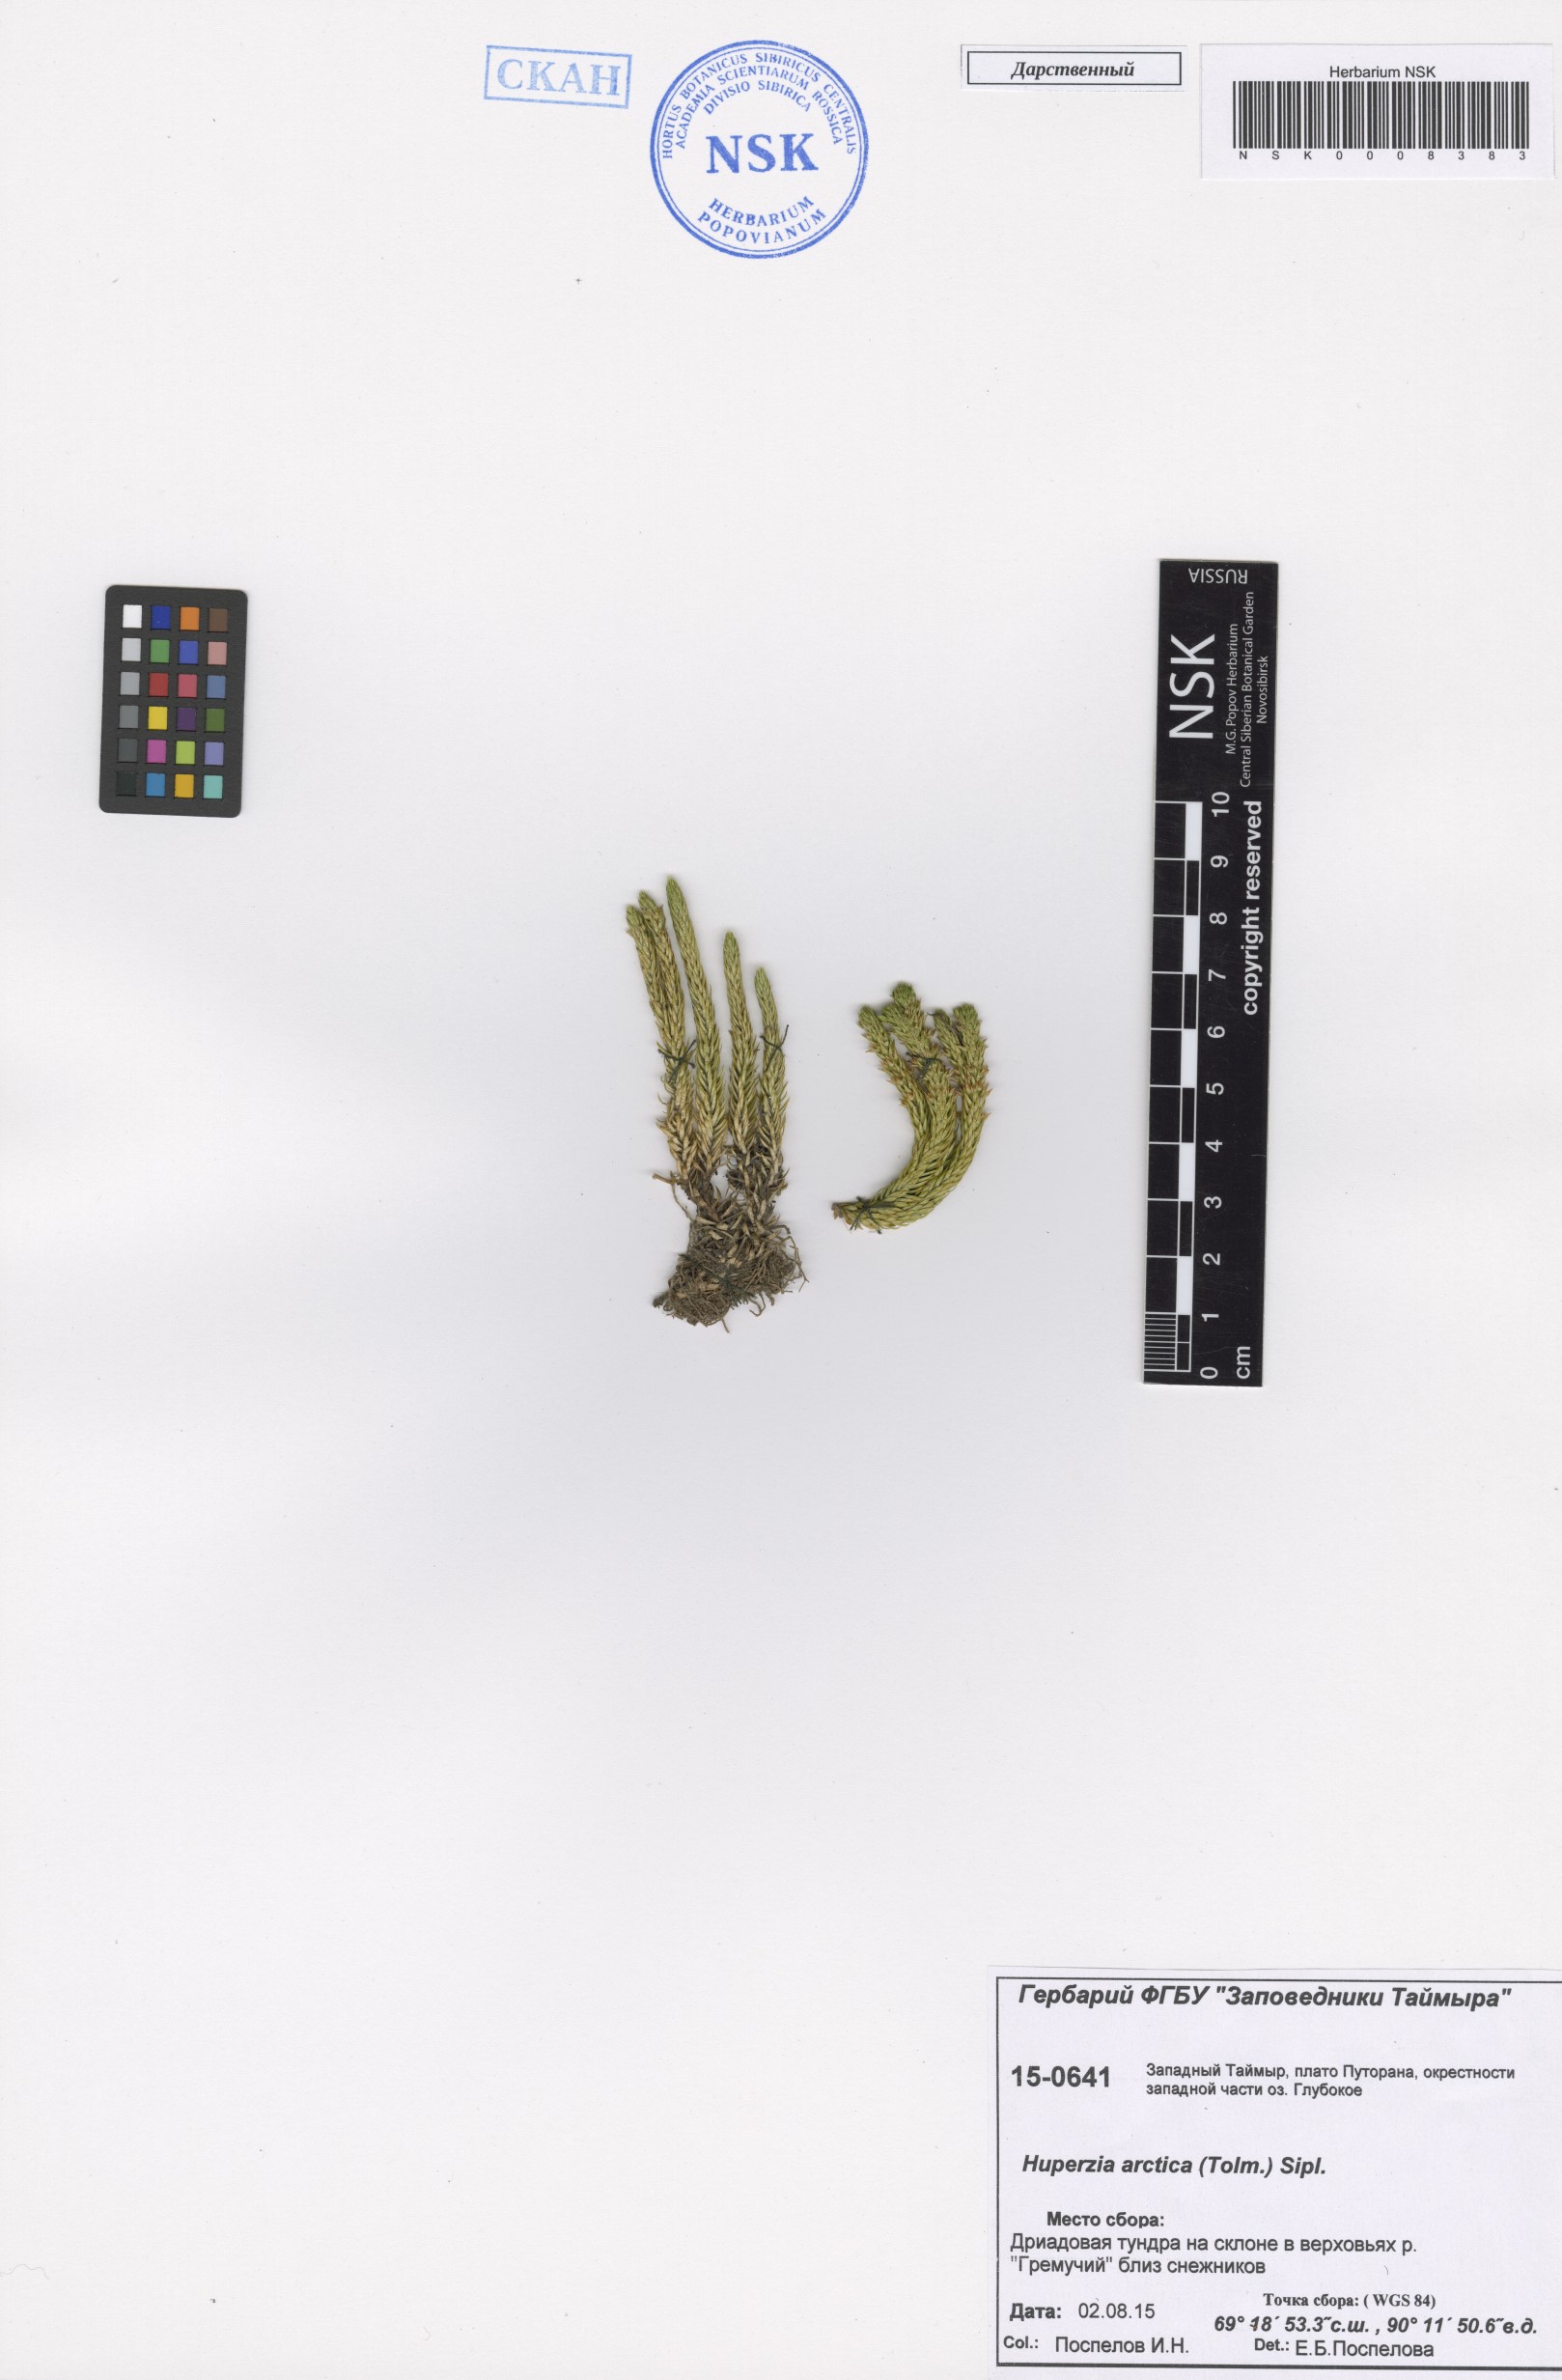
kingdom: Plantae
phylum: Tracheophyta
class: Lycopodiopsida
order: Lycopodiales
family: Lycopodiaceae
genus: Huperzia
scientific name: Huperzia selago
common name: Northern firmoss
